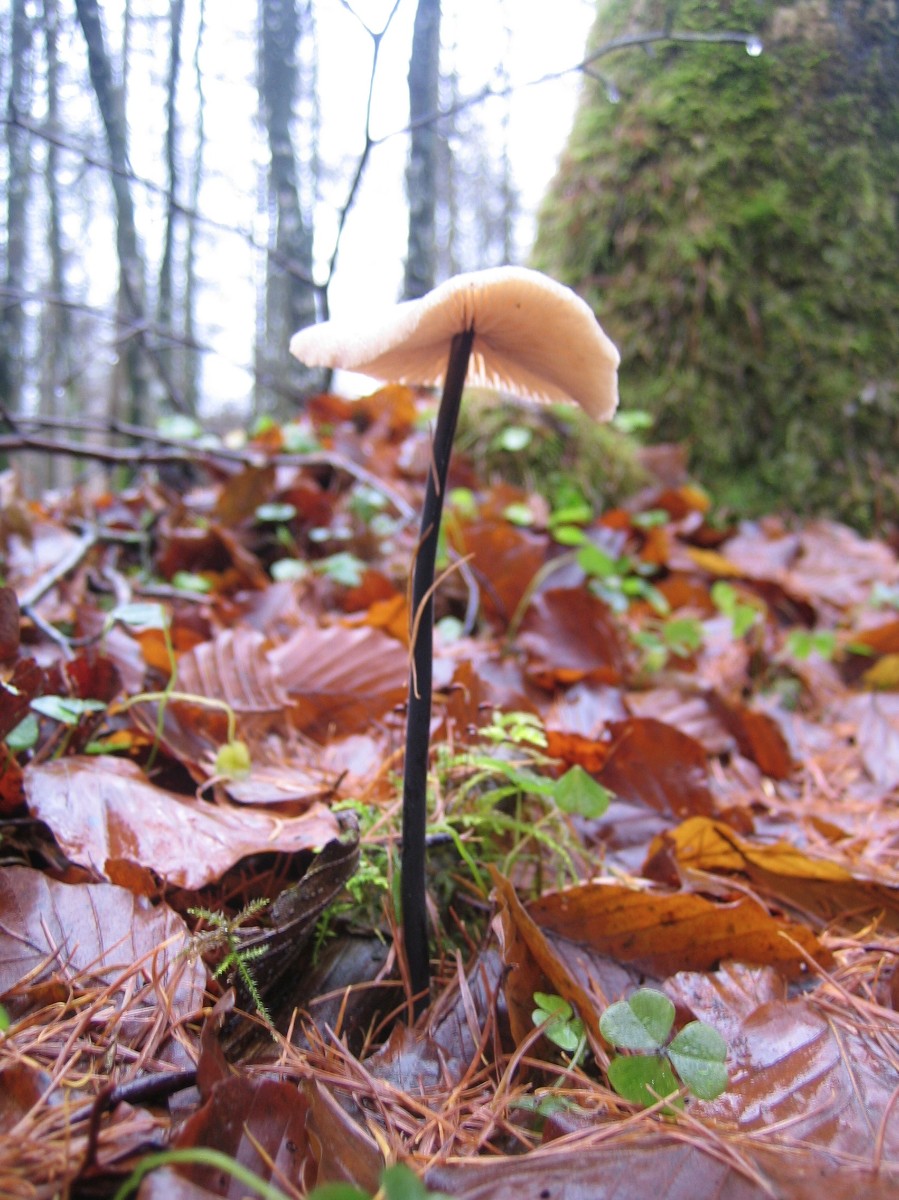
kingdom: Fungi
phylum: Basidiomycota
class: Agaricomycetes
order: Agaricales
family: Omphalotaceae
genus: Mycetinis
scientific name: Mycetinis alliaceus
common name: stor løghat
